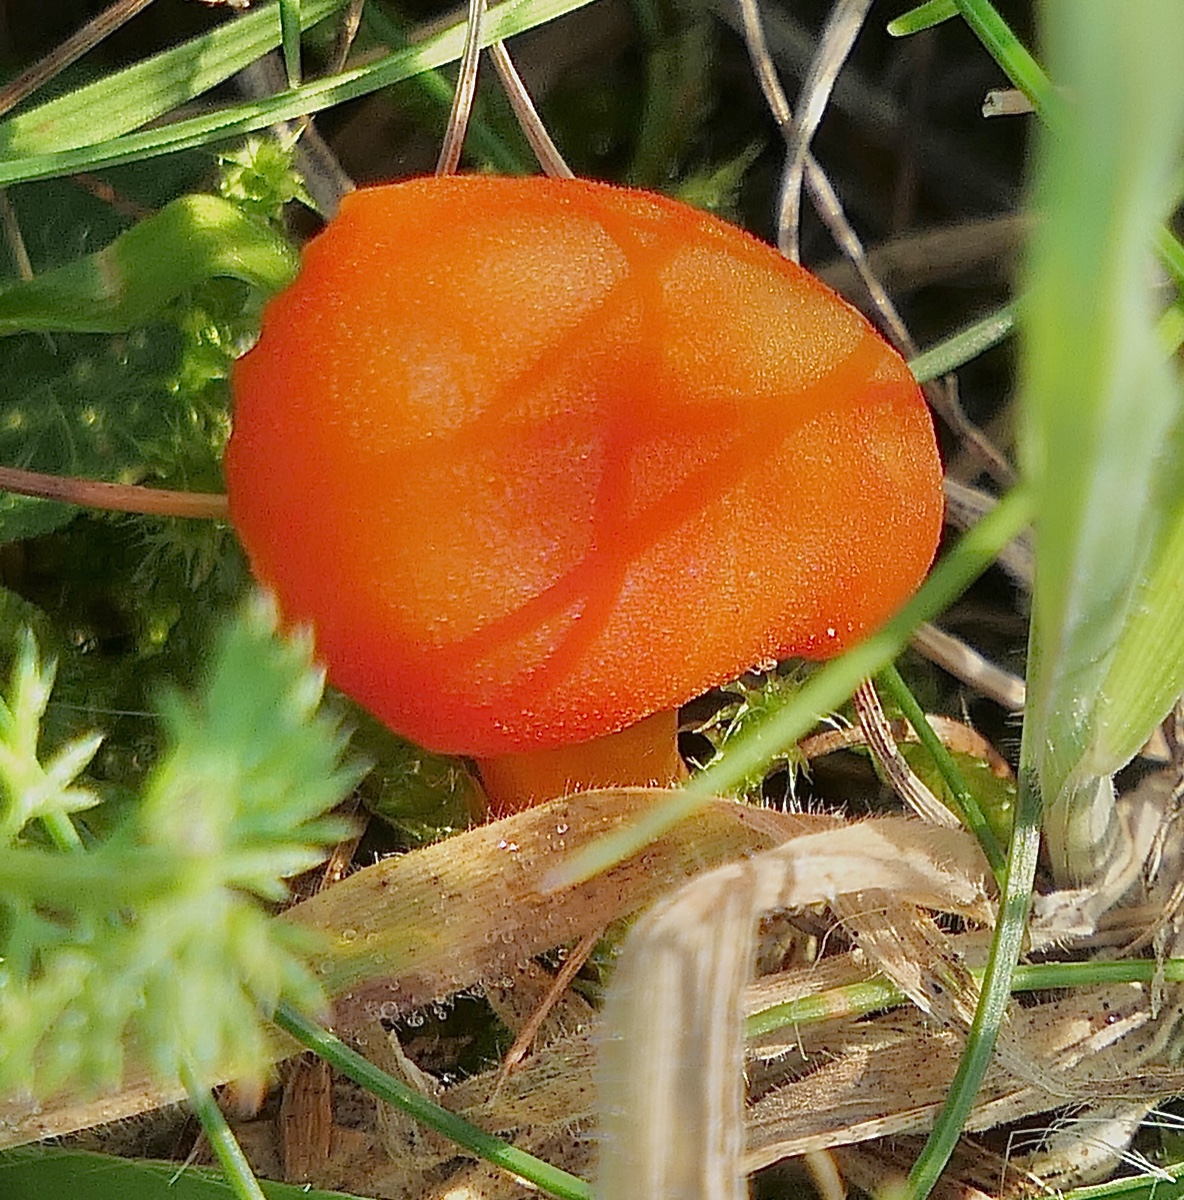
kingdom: Fungi
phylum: Basidiomycota
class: Agaricomycetes
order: Agaricales
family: Hygrophoraceae
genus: Hygrocybe
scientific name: Hygrocybe miniata
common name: mønje-vokshat
